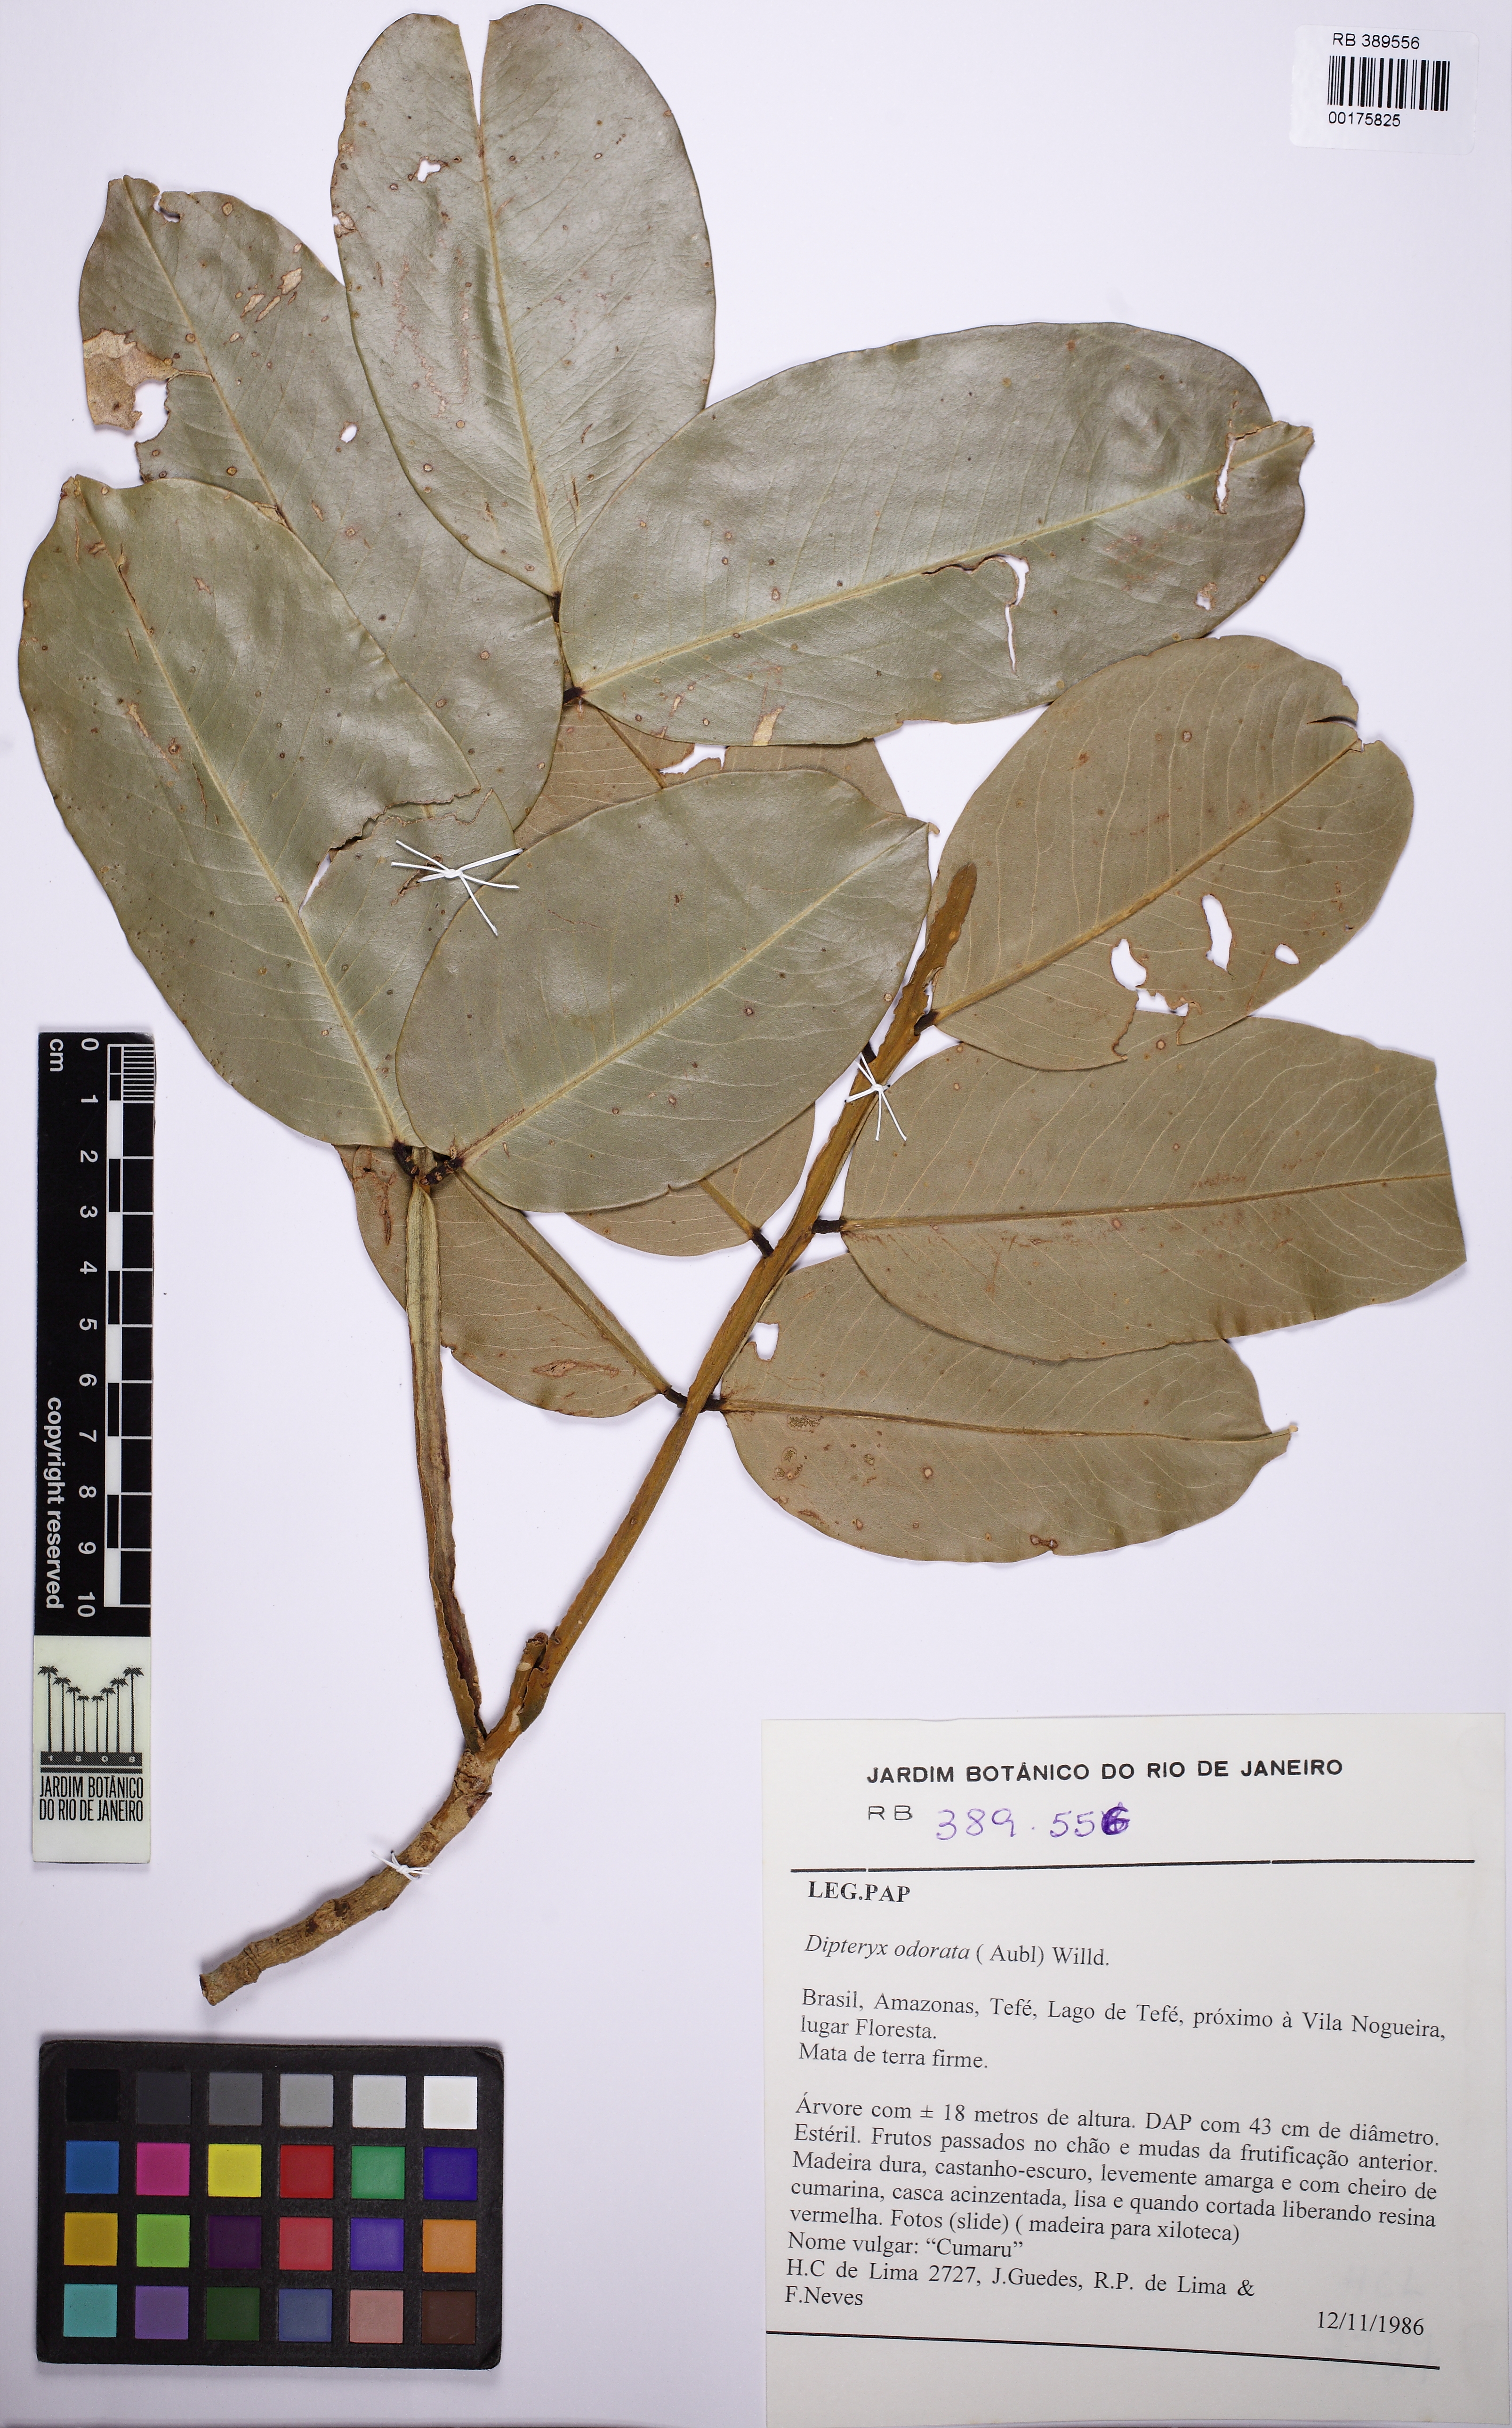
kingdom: Plantae
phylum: Tracheophyta
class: Magnoliopsida
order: Fabales
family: Fabaceae
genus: Dipteryx
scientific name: Dipteryx odorata
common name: Tonka
